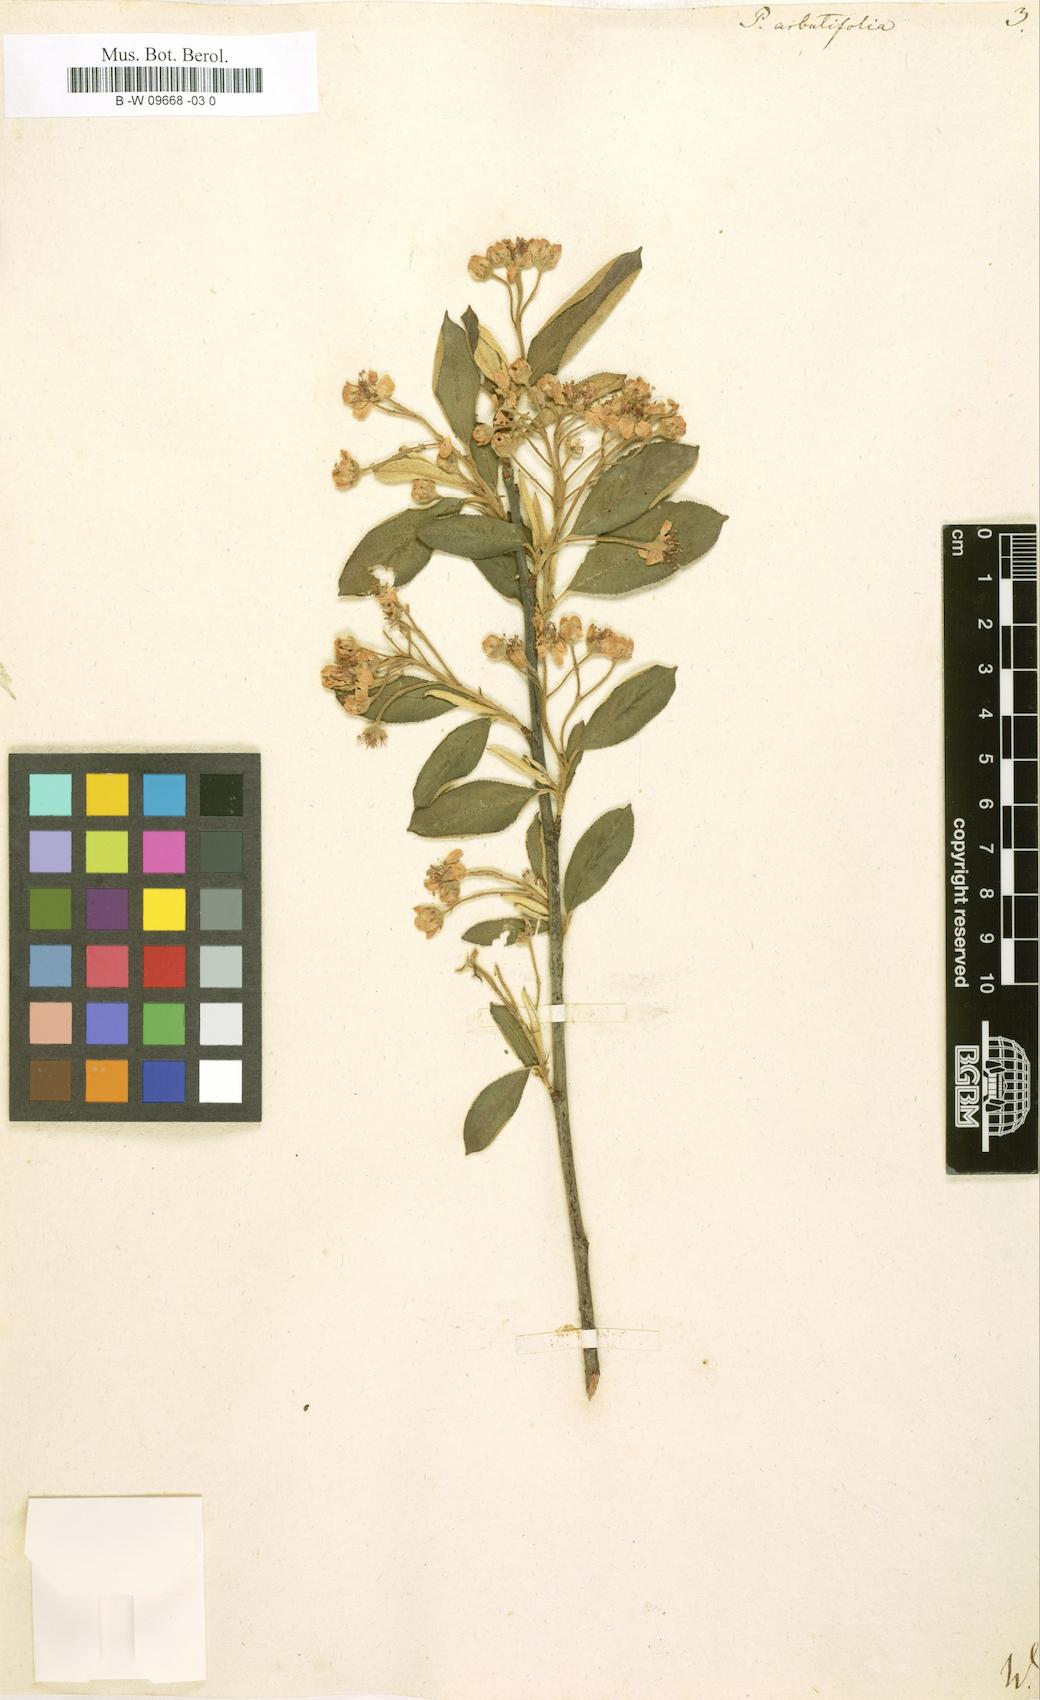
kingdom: Plantae
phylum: Tracheophyta
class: Magnoliopsida
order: Rosales
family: Rosaceae
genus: Aronia
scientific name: Aronia arbutifolia
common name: Red chokeberry
